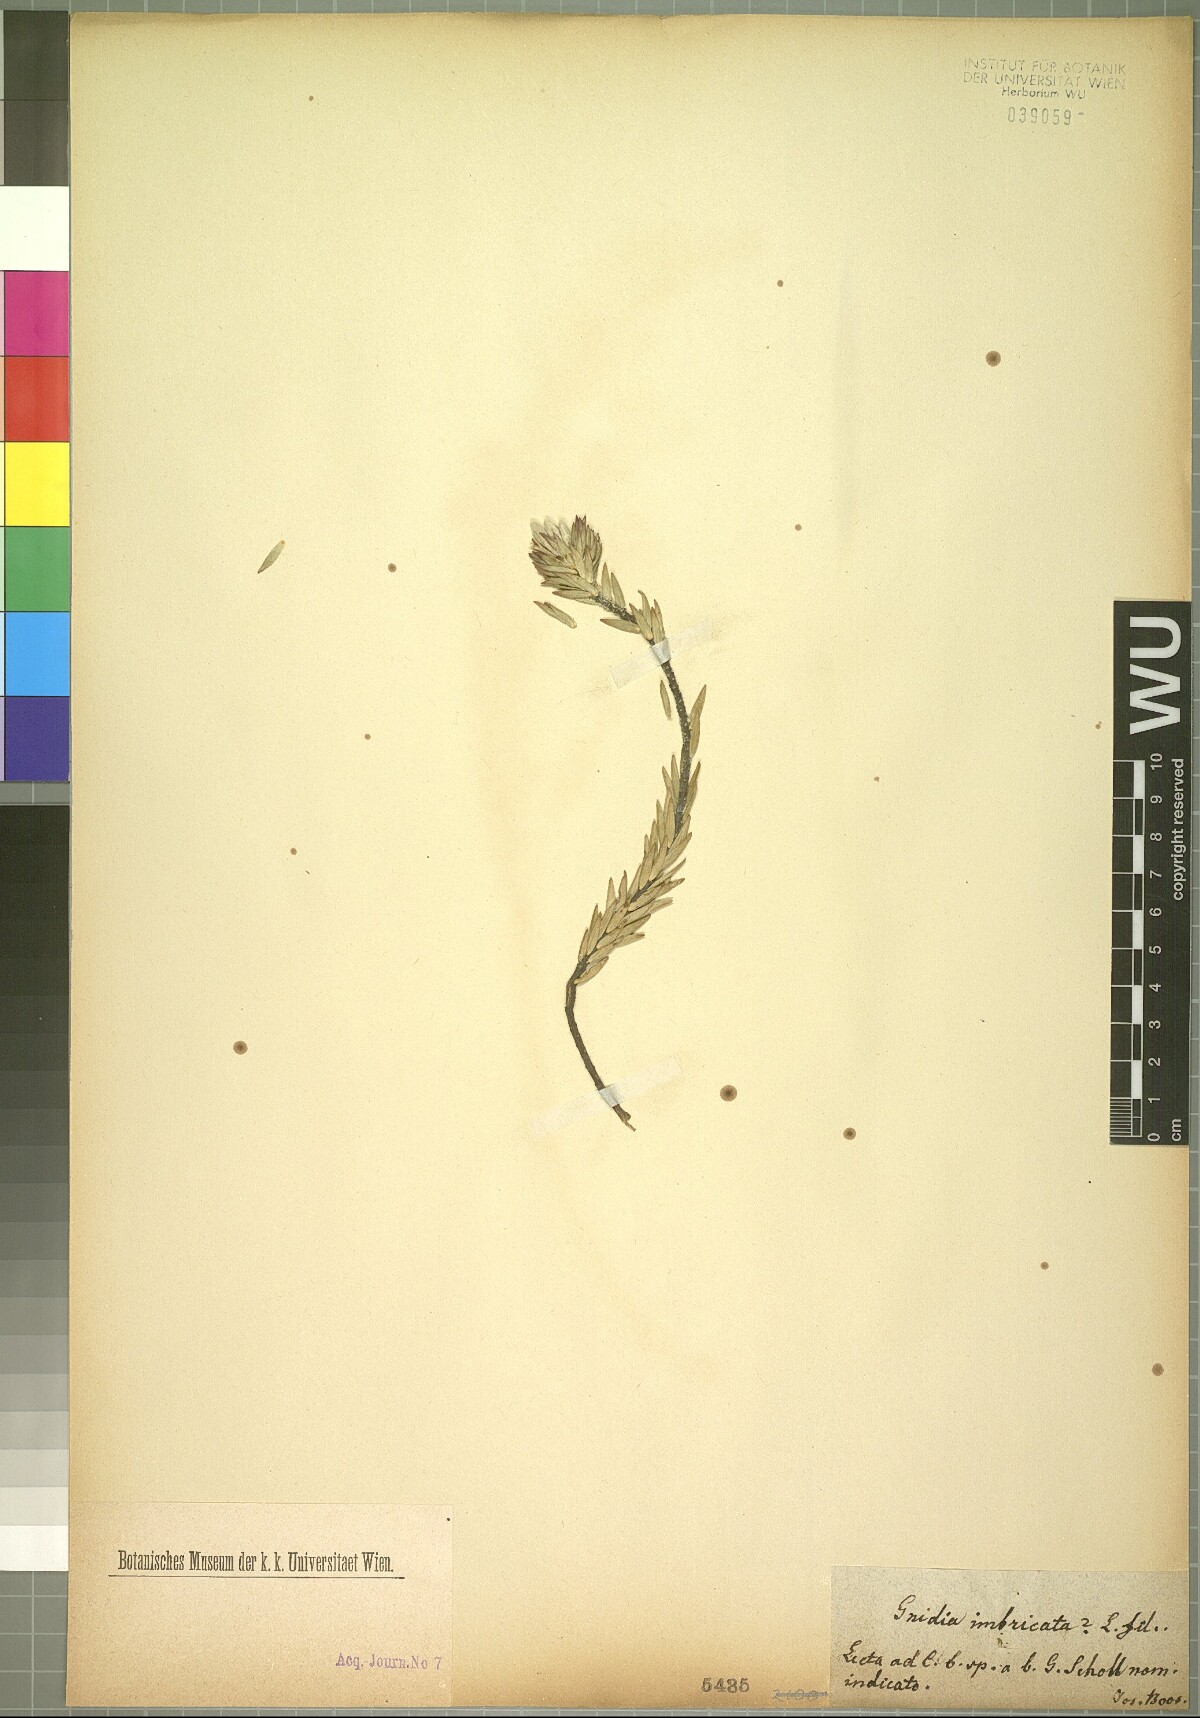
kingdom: Plantae
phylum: Tracheophyta
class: Magnoliopsida
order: Malvales
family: Thymelaeaceae
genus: Gnidia
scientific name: Gnidia imbricata
